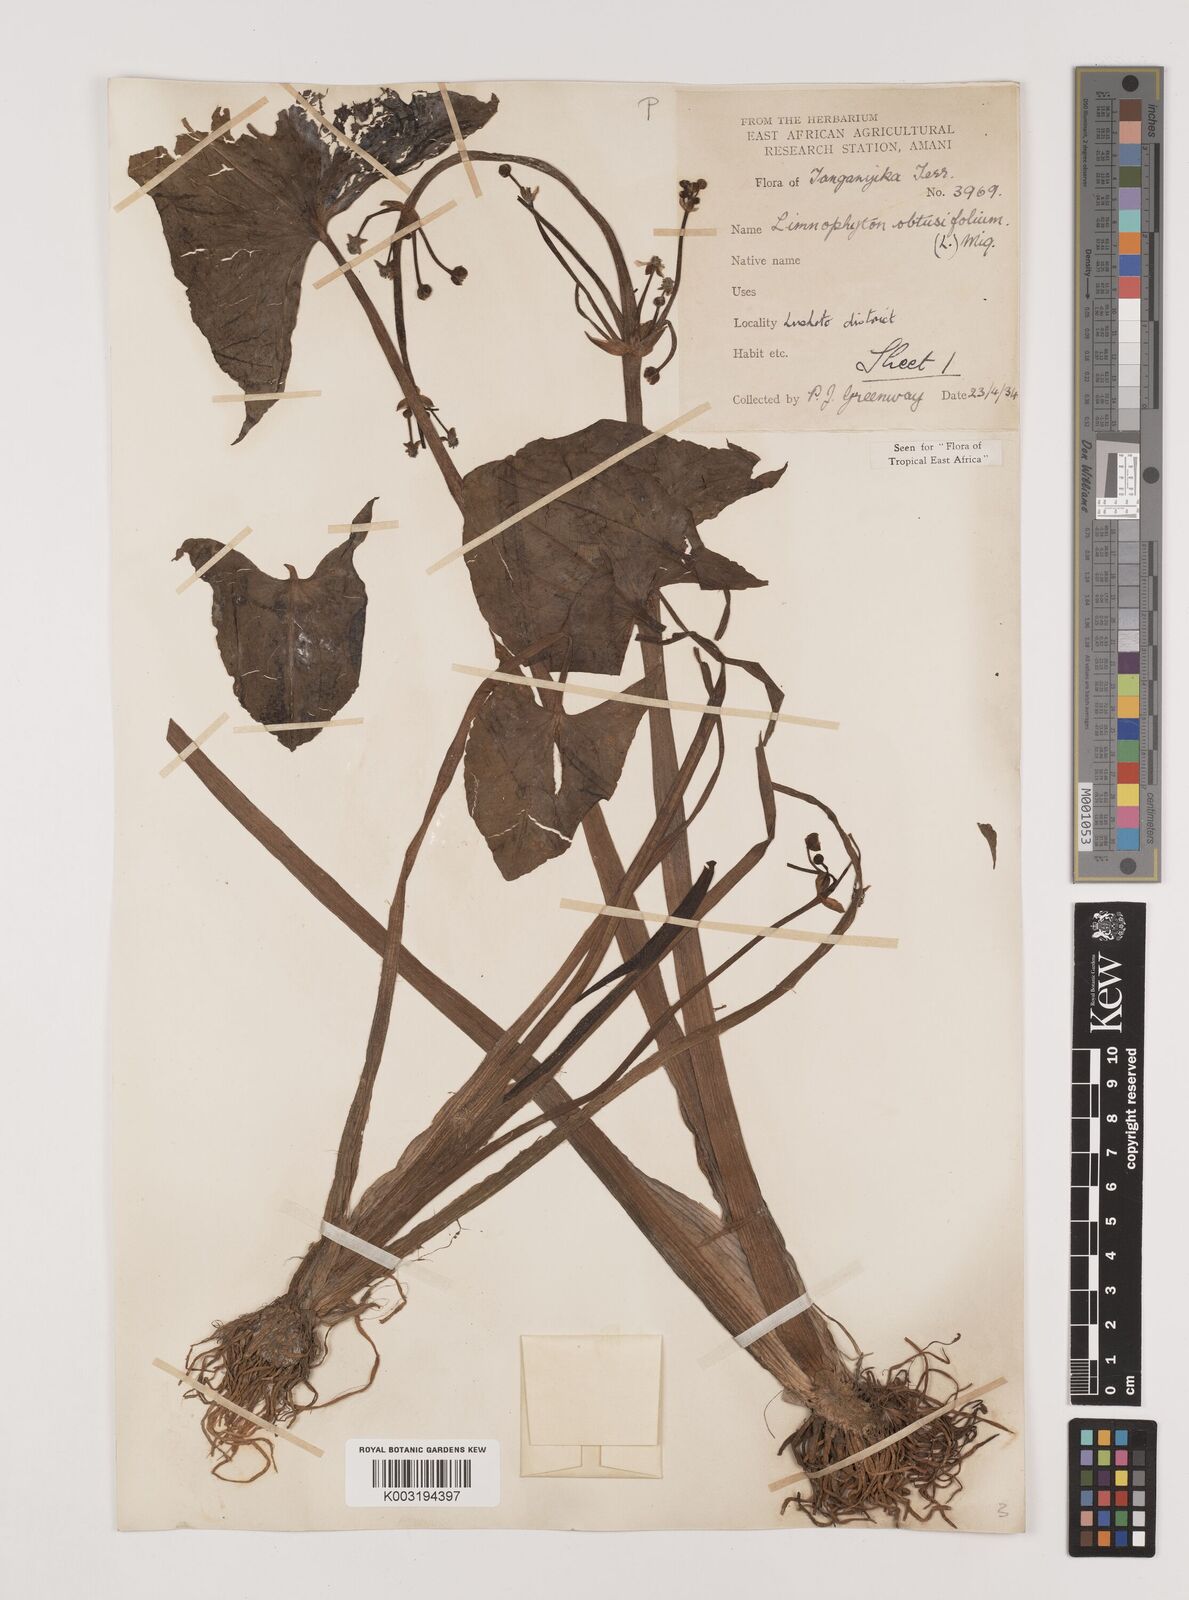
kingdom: Plantae
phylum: Tracheophyta
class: Liliopsida
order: Alismatales
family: Alismataceae
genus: Limnophyton
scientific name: Limnophyton obtusifolium
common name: Arrow head
